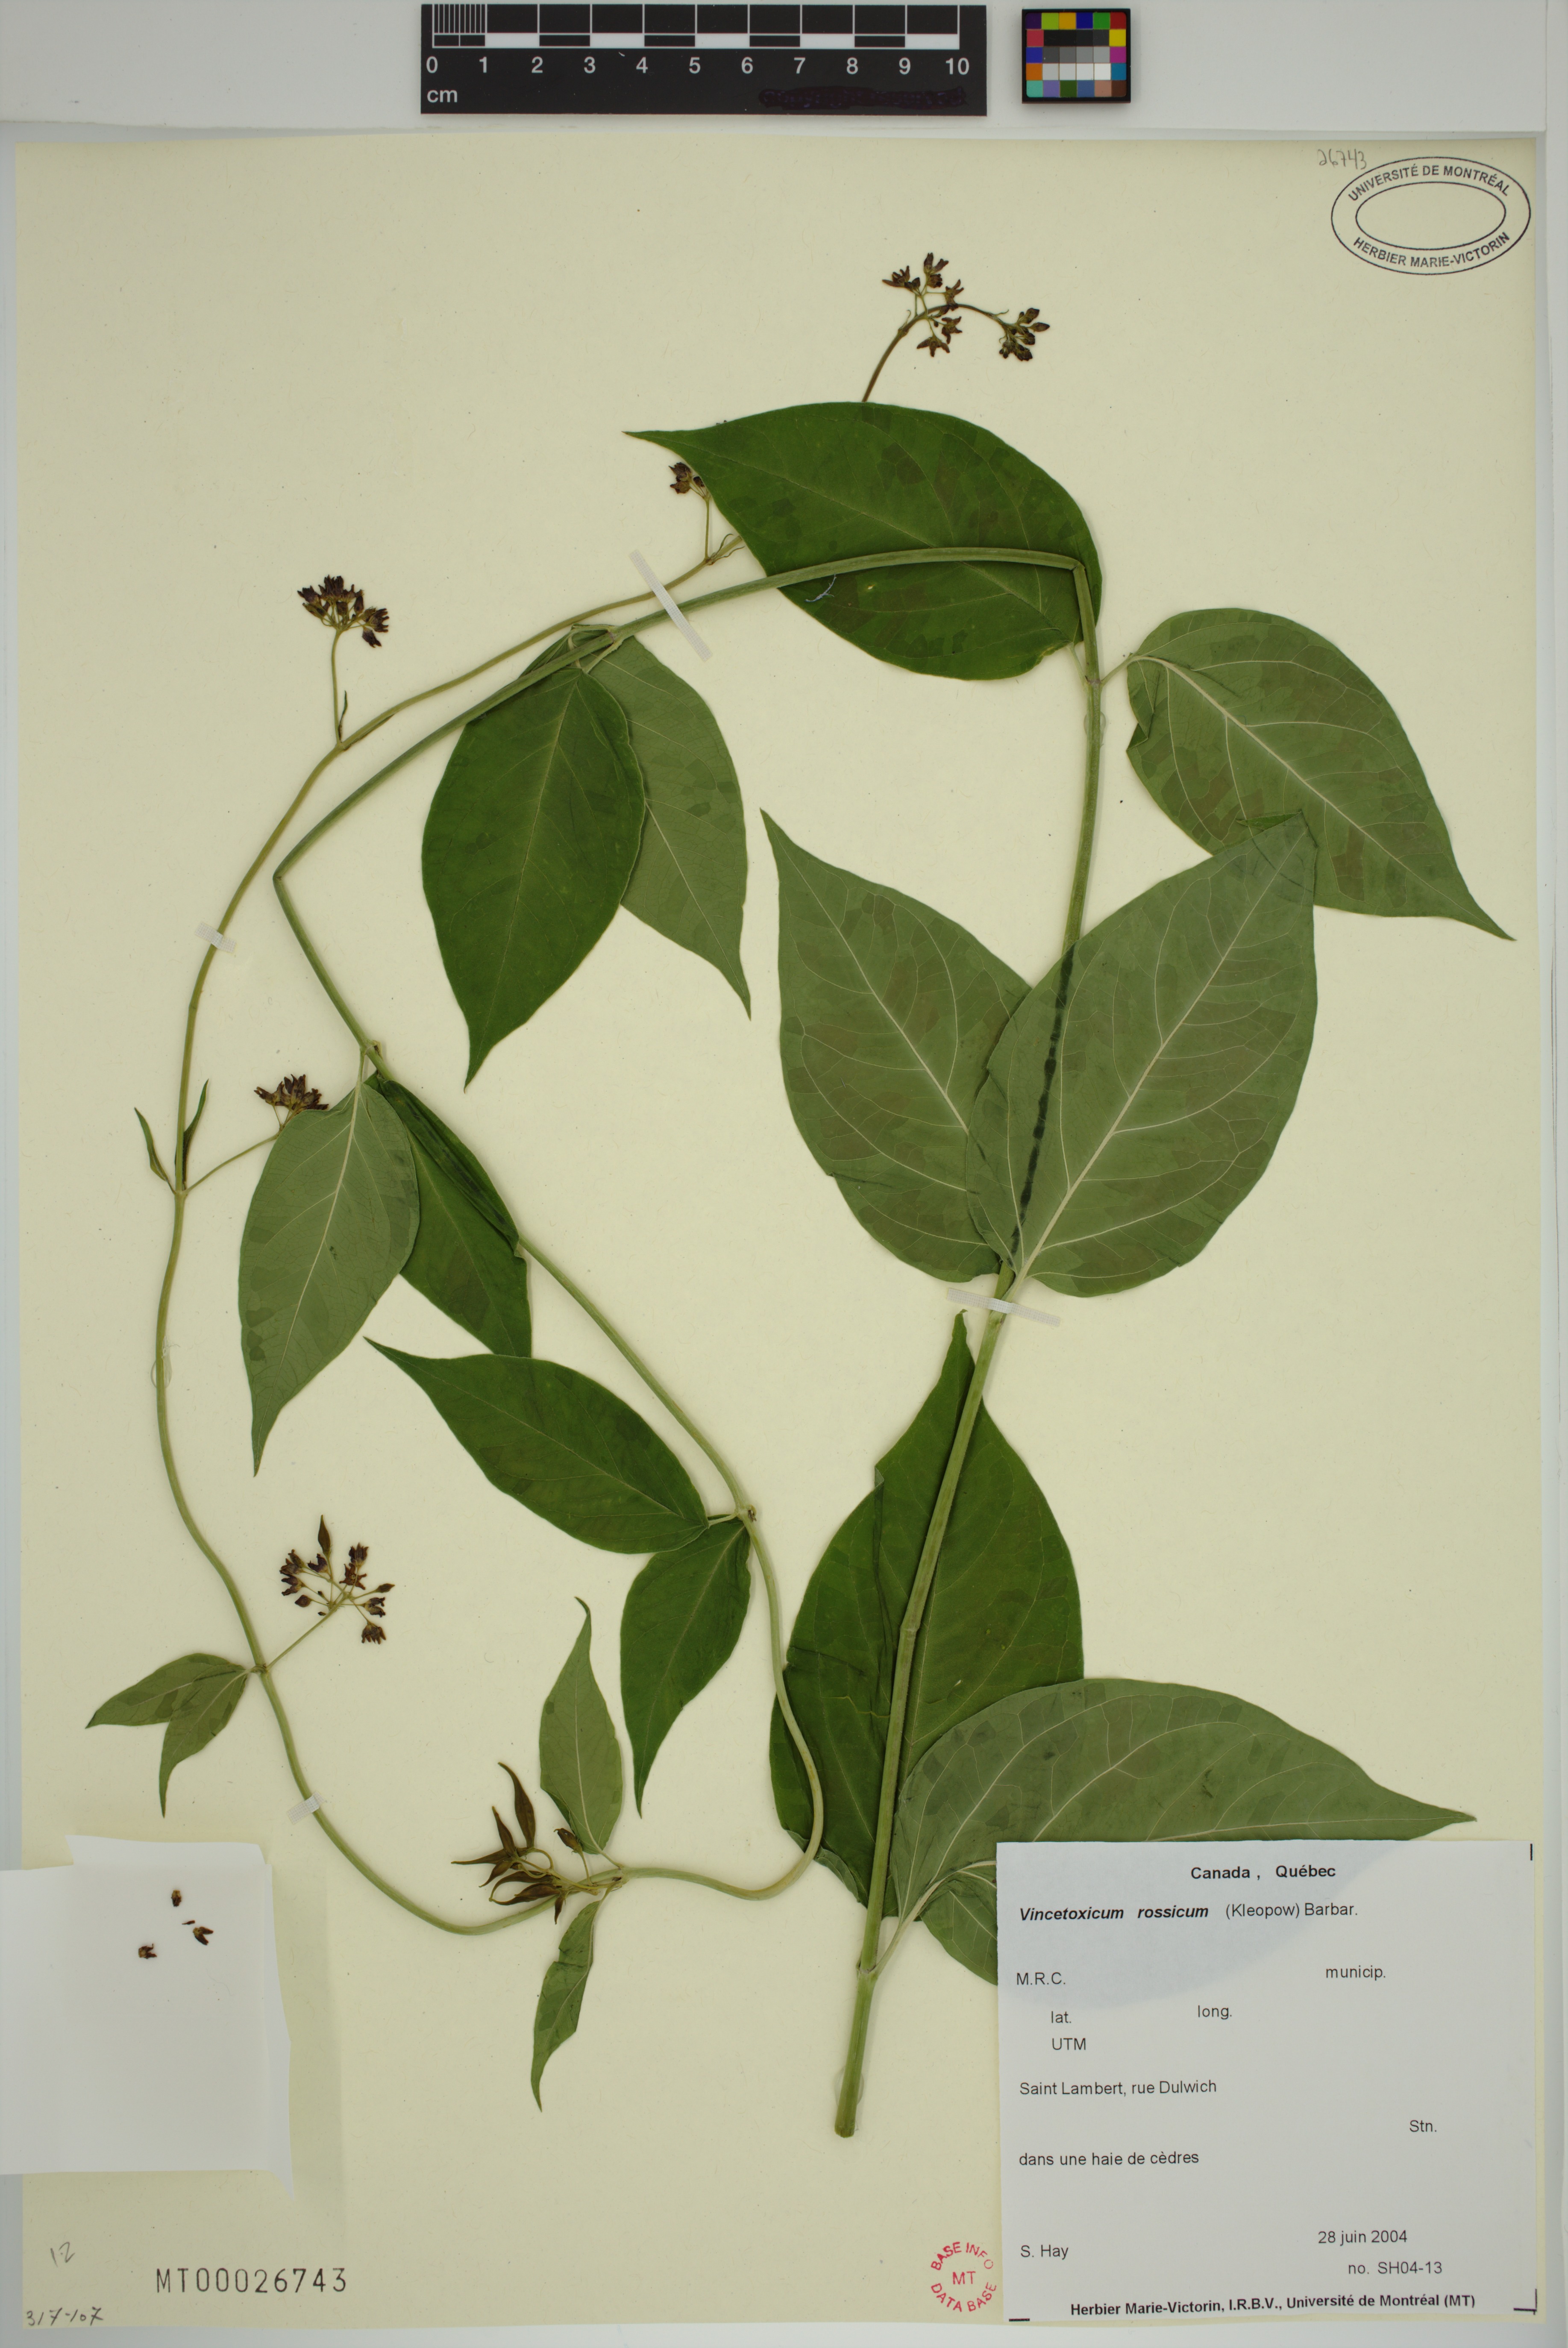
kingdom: Plantae
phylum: Tracheophyta
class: Magnoliopsida
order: Gentianales
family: Apocynaceae
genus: Vincetoxicum
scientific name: Vincetoxicum rossicum
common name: Dog-strangling vine
